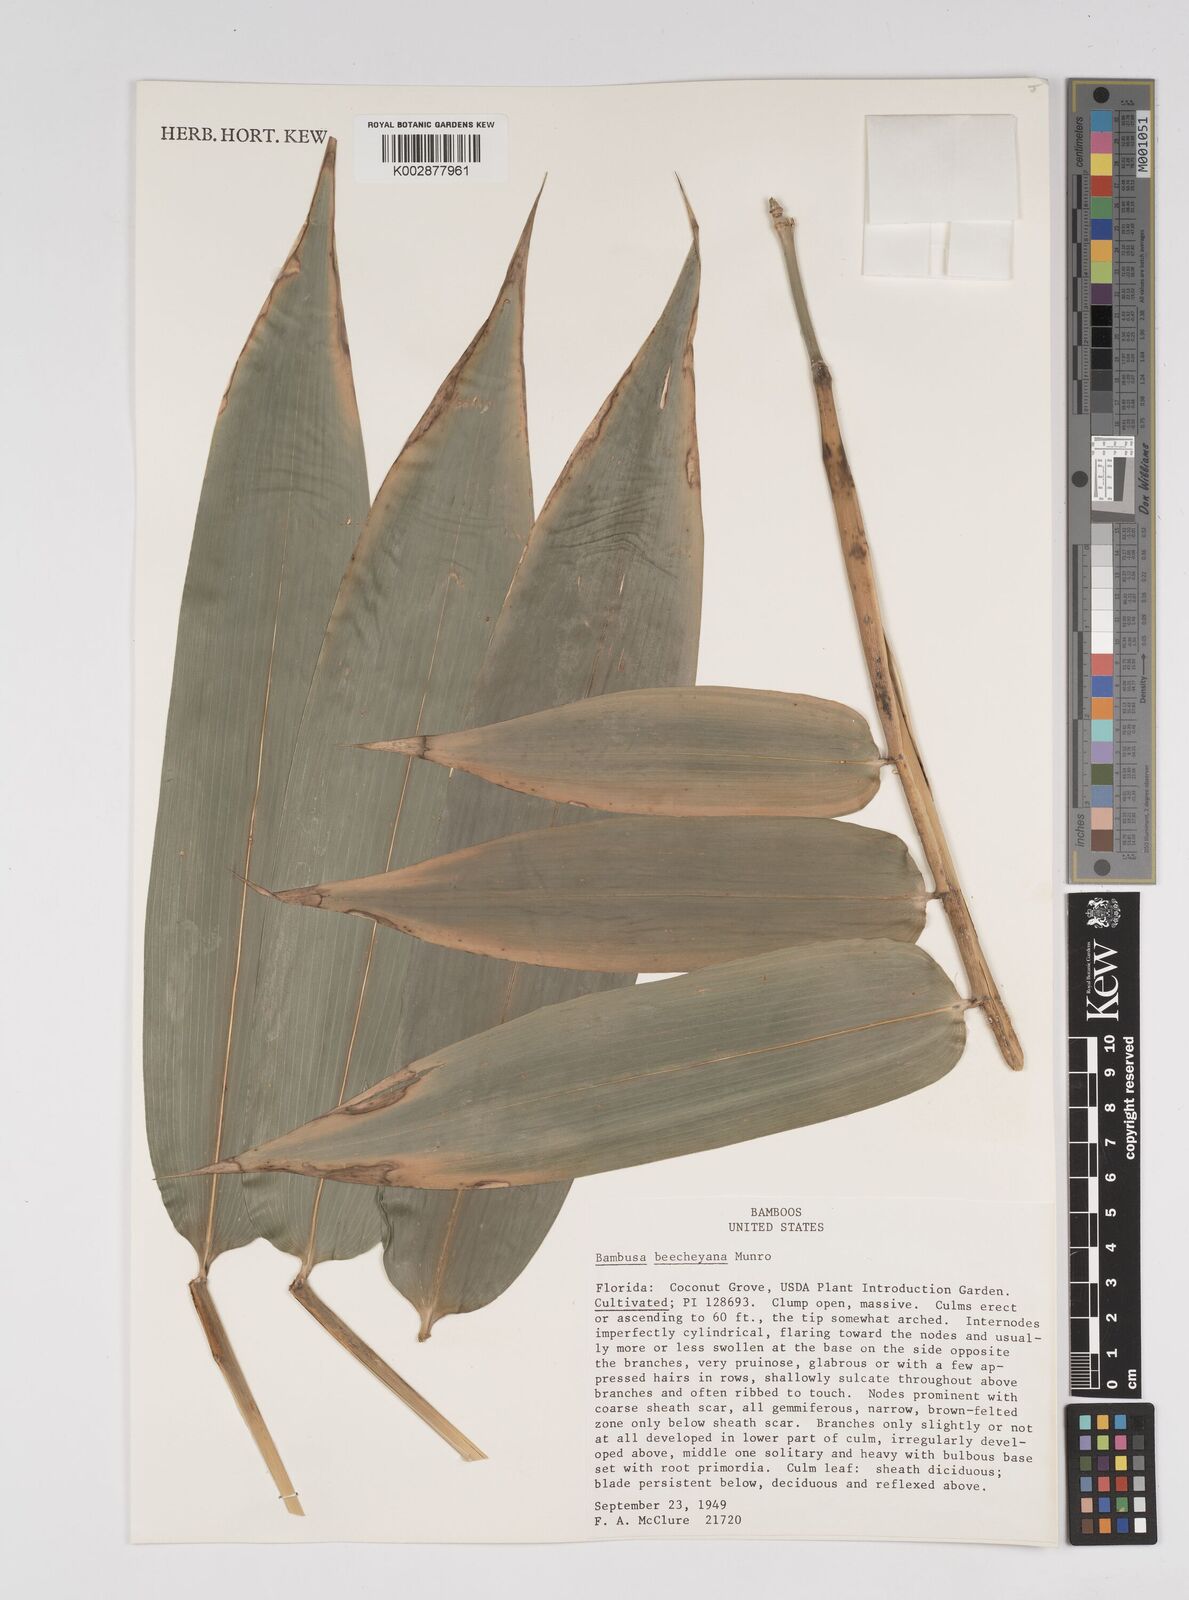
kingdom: Plantae
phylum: Tracheophyta
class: Liliopsida
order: Poales
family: Poaceae
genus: Bambusa
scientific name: Bambusa beecheyana
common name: Beechey's bamboo
